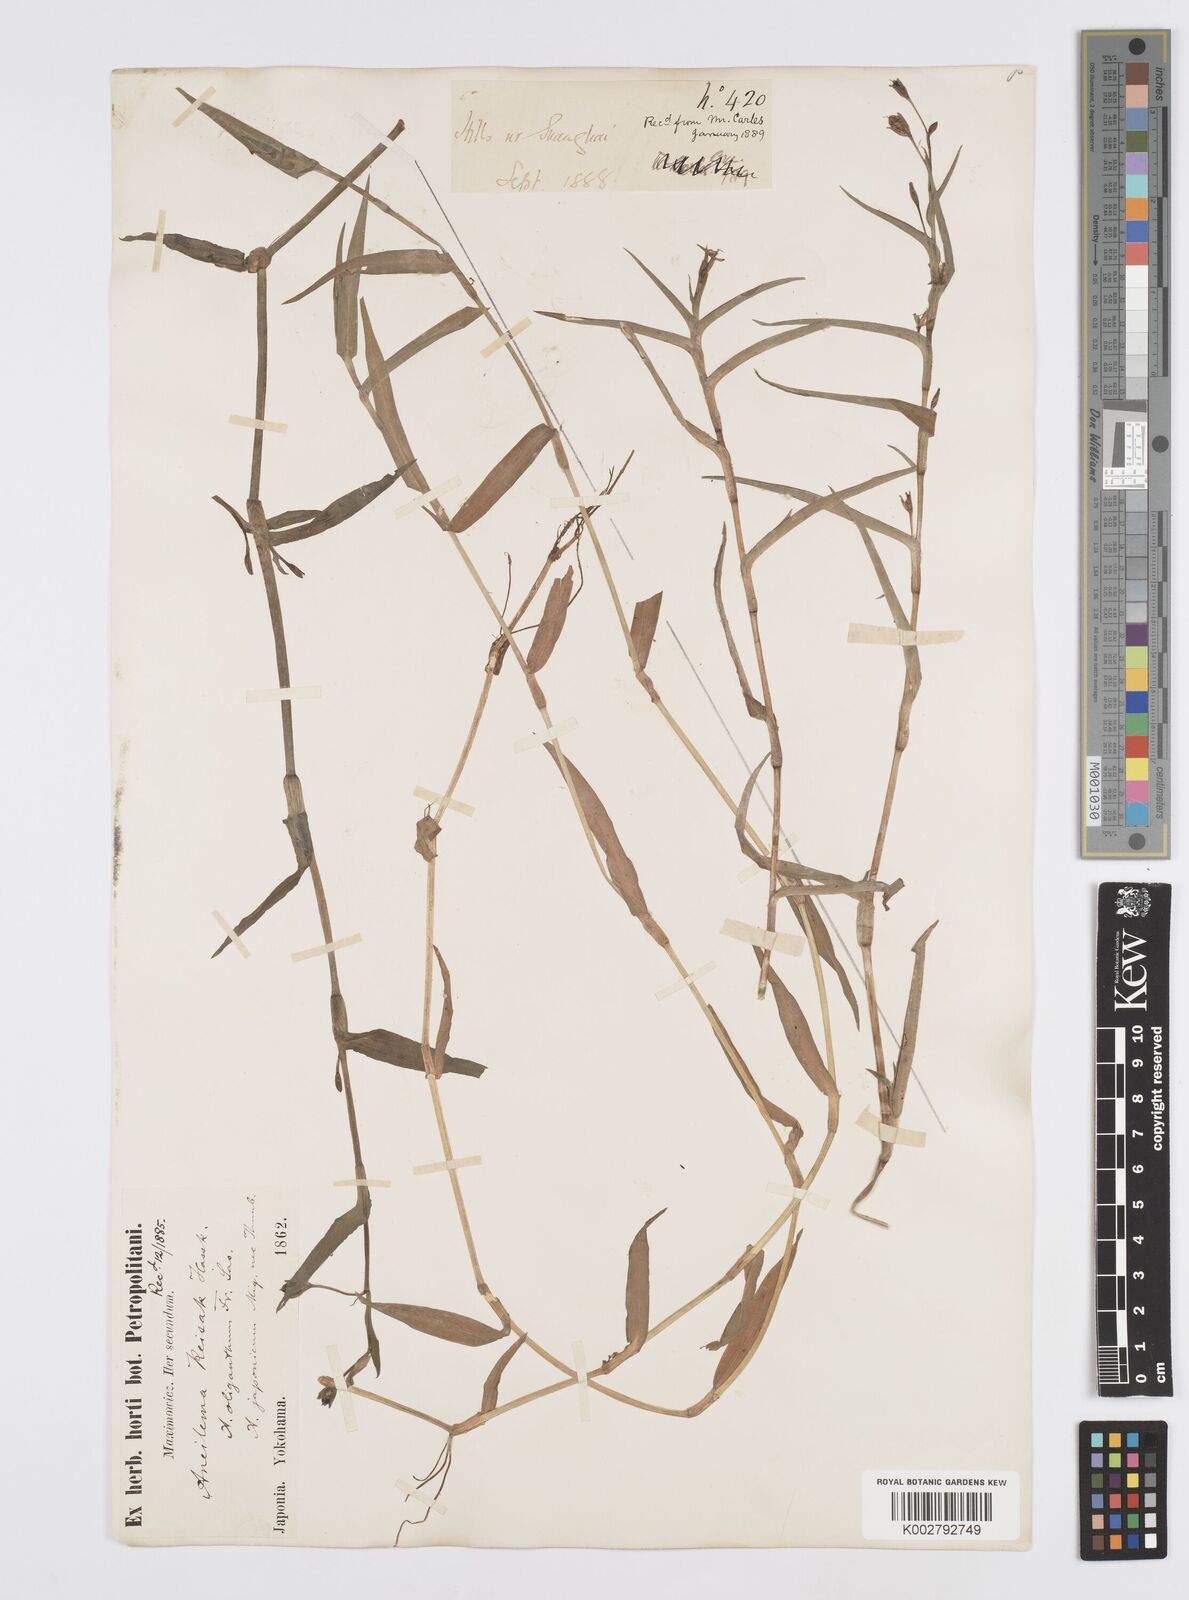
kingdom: Plantae
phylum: Tracheophyta
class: Liliopsida
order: Commelinales
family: Commelinaceae
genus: Murdannia
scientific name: Murdannia keisak
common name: Wartremoving herb
